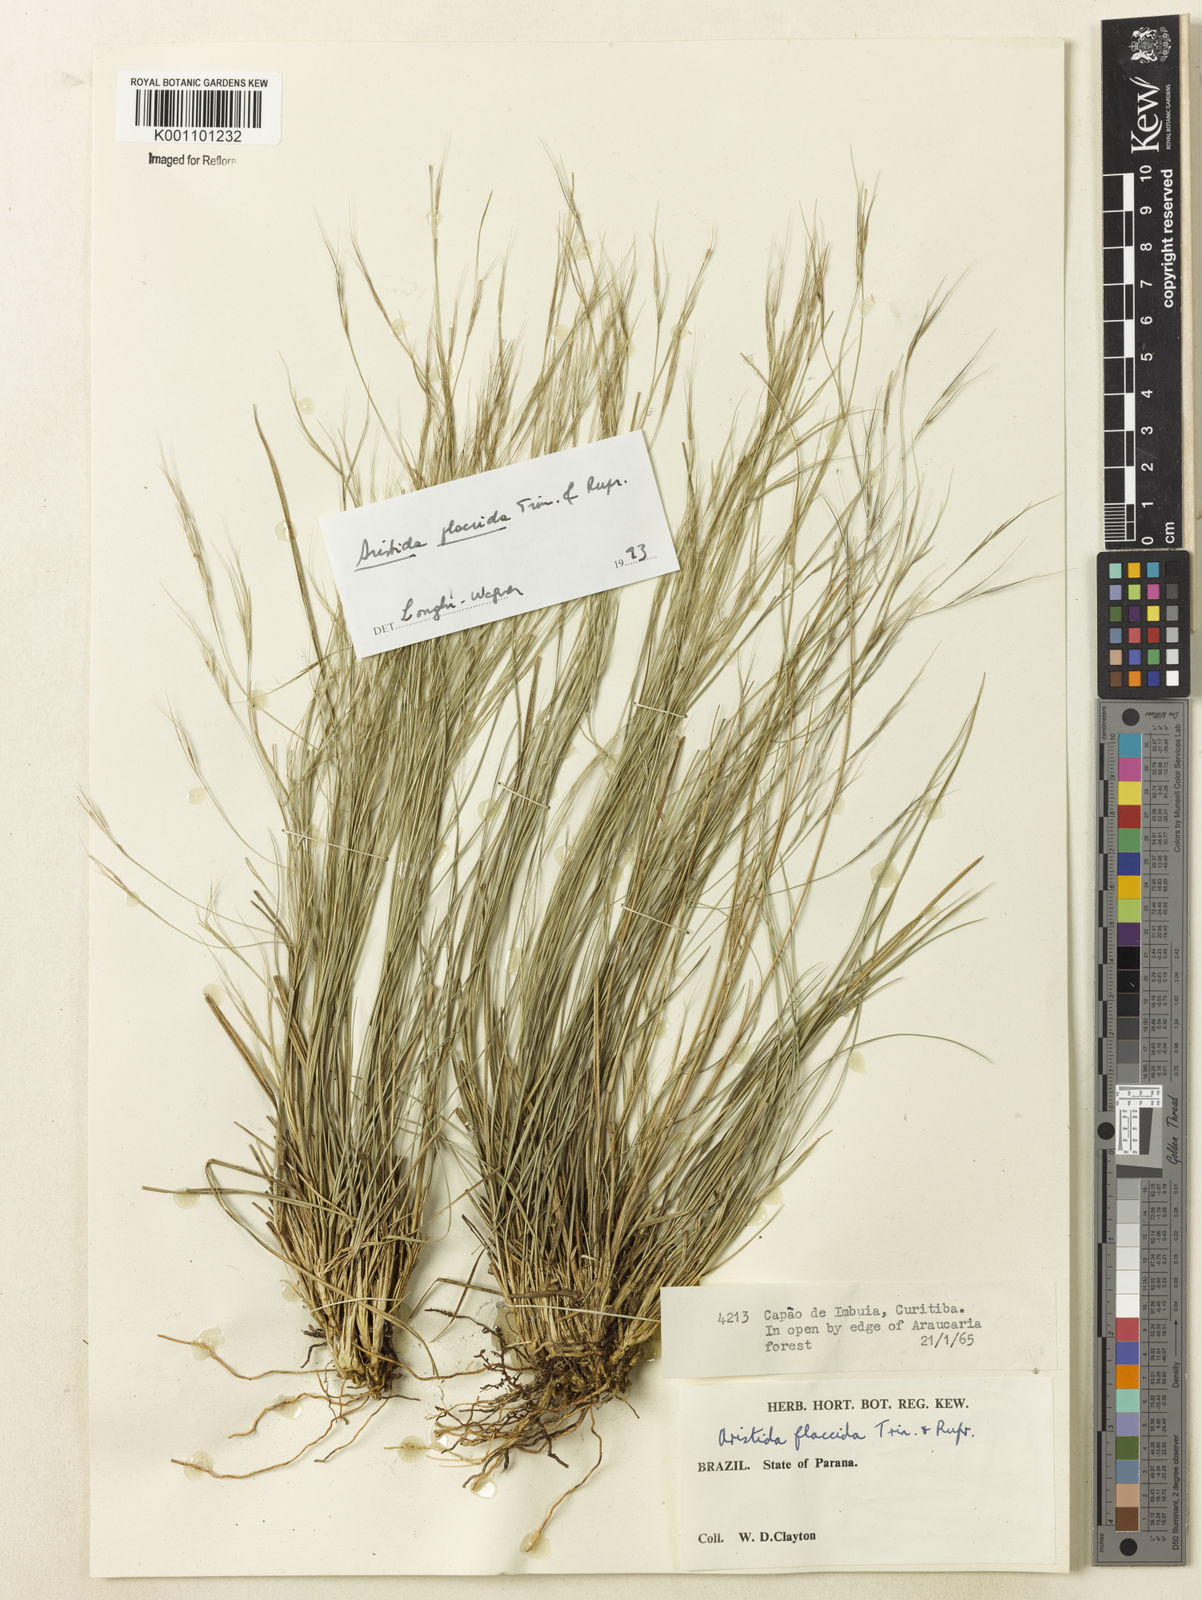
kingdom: Plantae
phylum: Tracheophyta
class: Liliopsida
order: Poales
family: Poaceae
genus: Aristida
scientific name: Aristida flaccida
